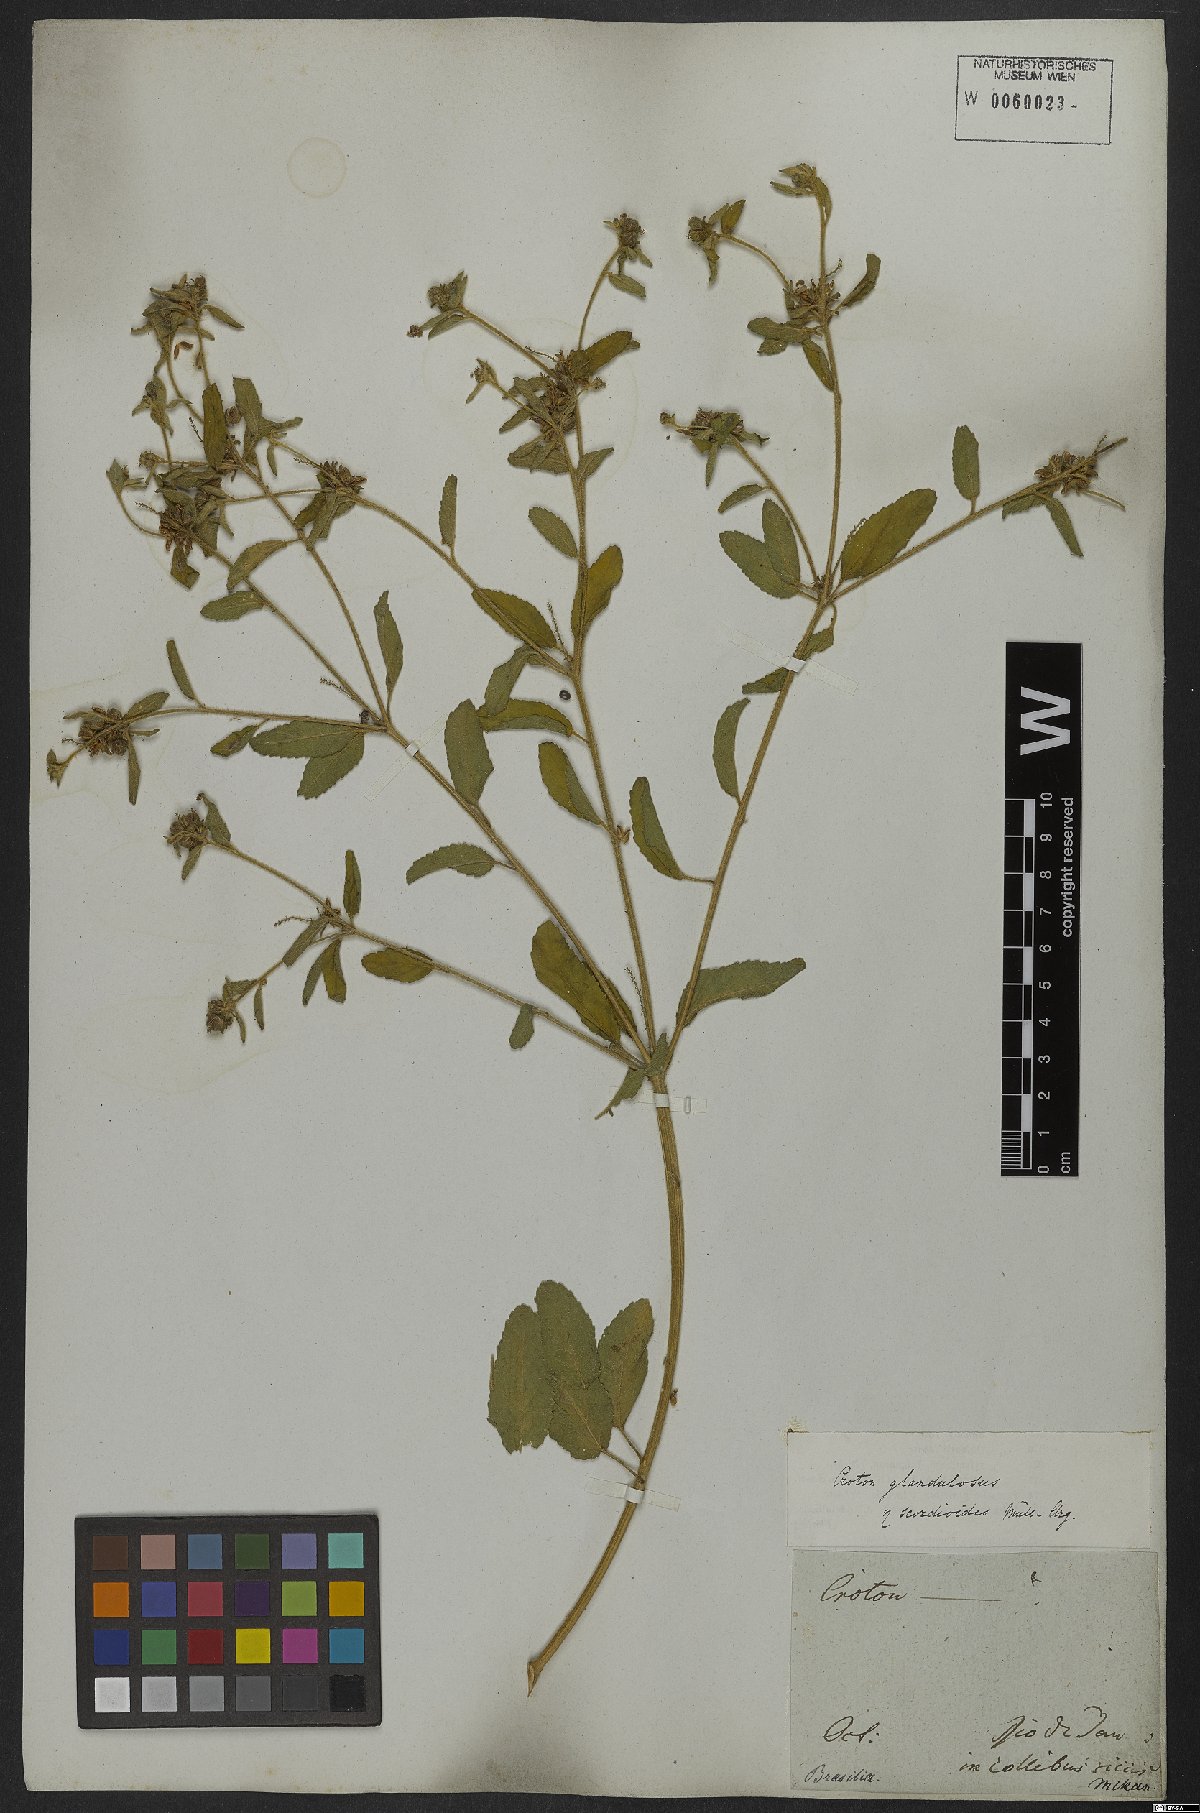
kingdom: Plantae
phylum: Tracheophyta
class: Magnoliopsida
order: Malpighiales
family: Euphorbiaceae
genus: Croton
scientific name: Croton glandulosus
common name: Tropic croton
